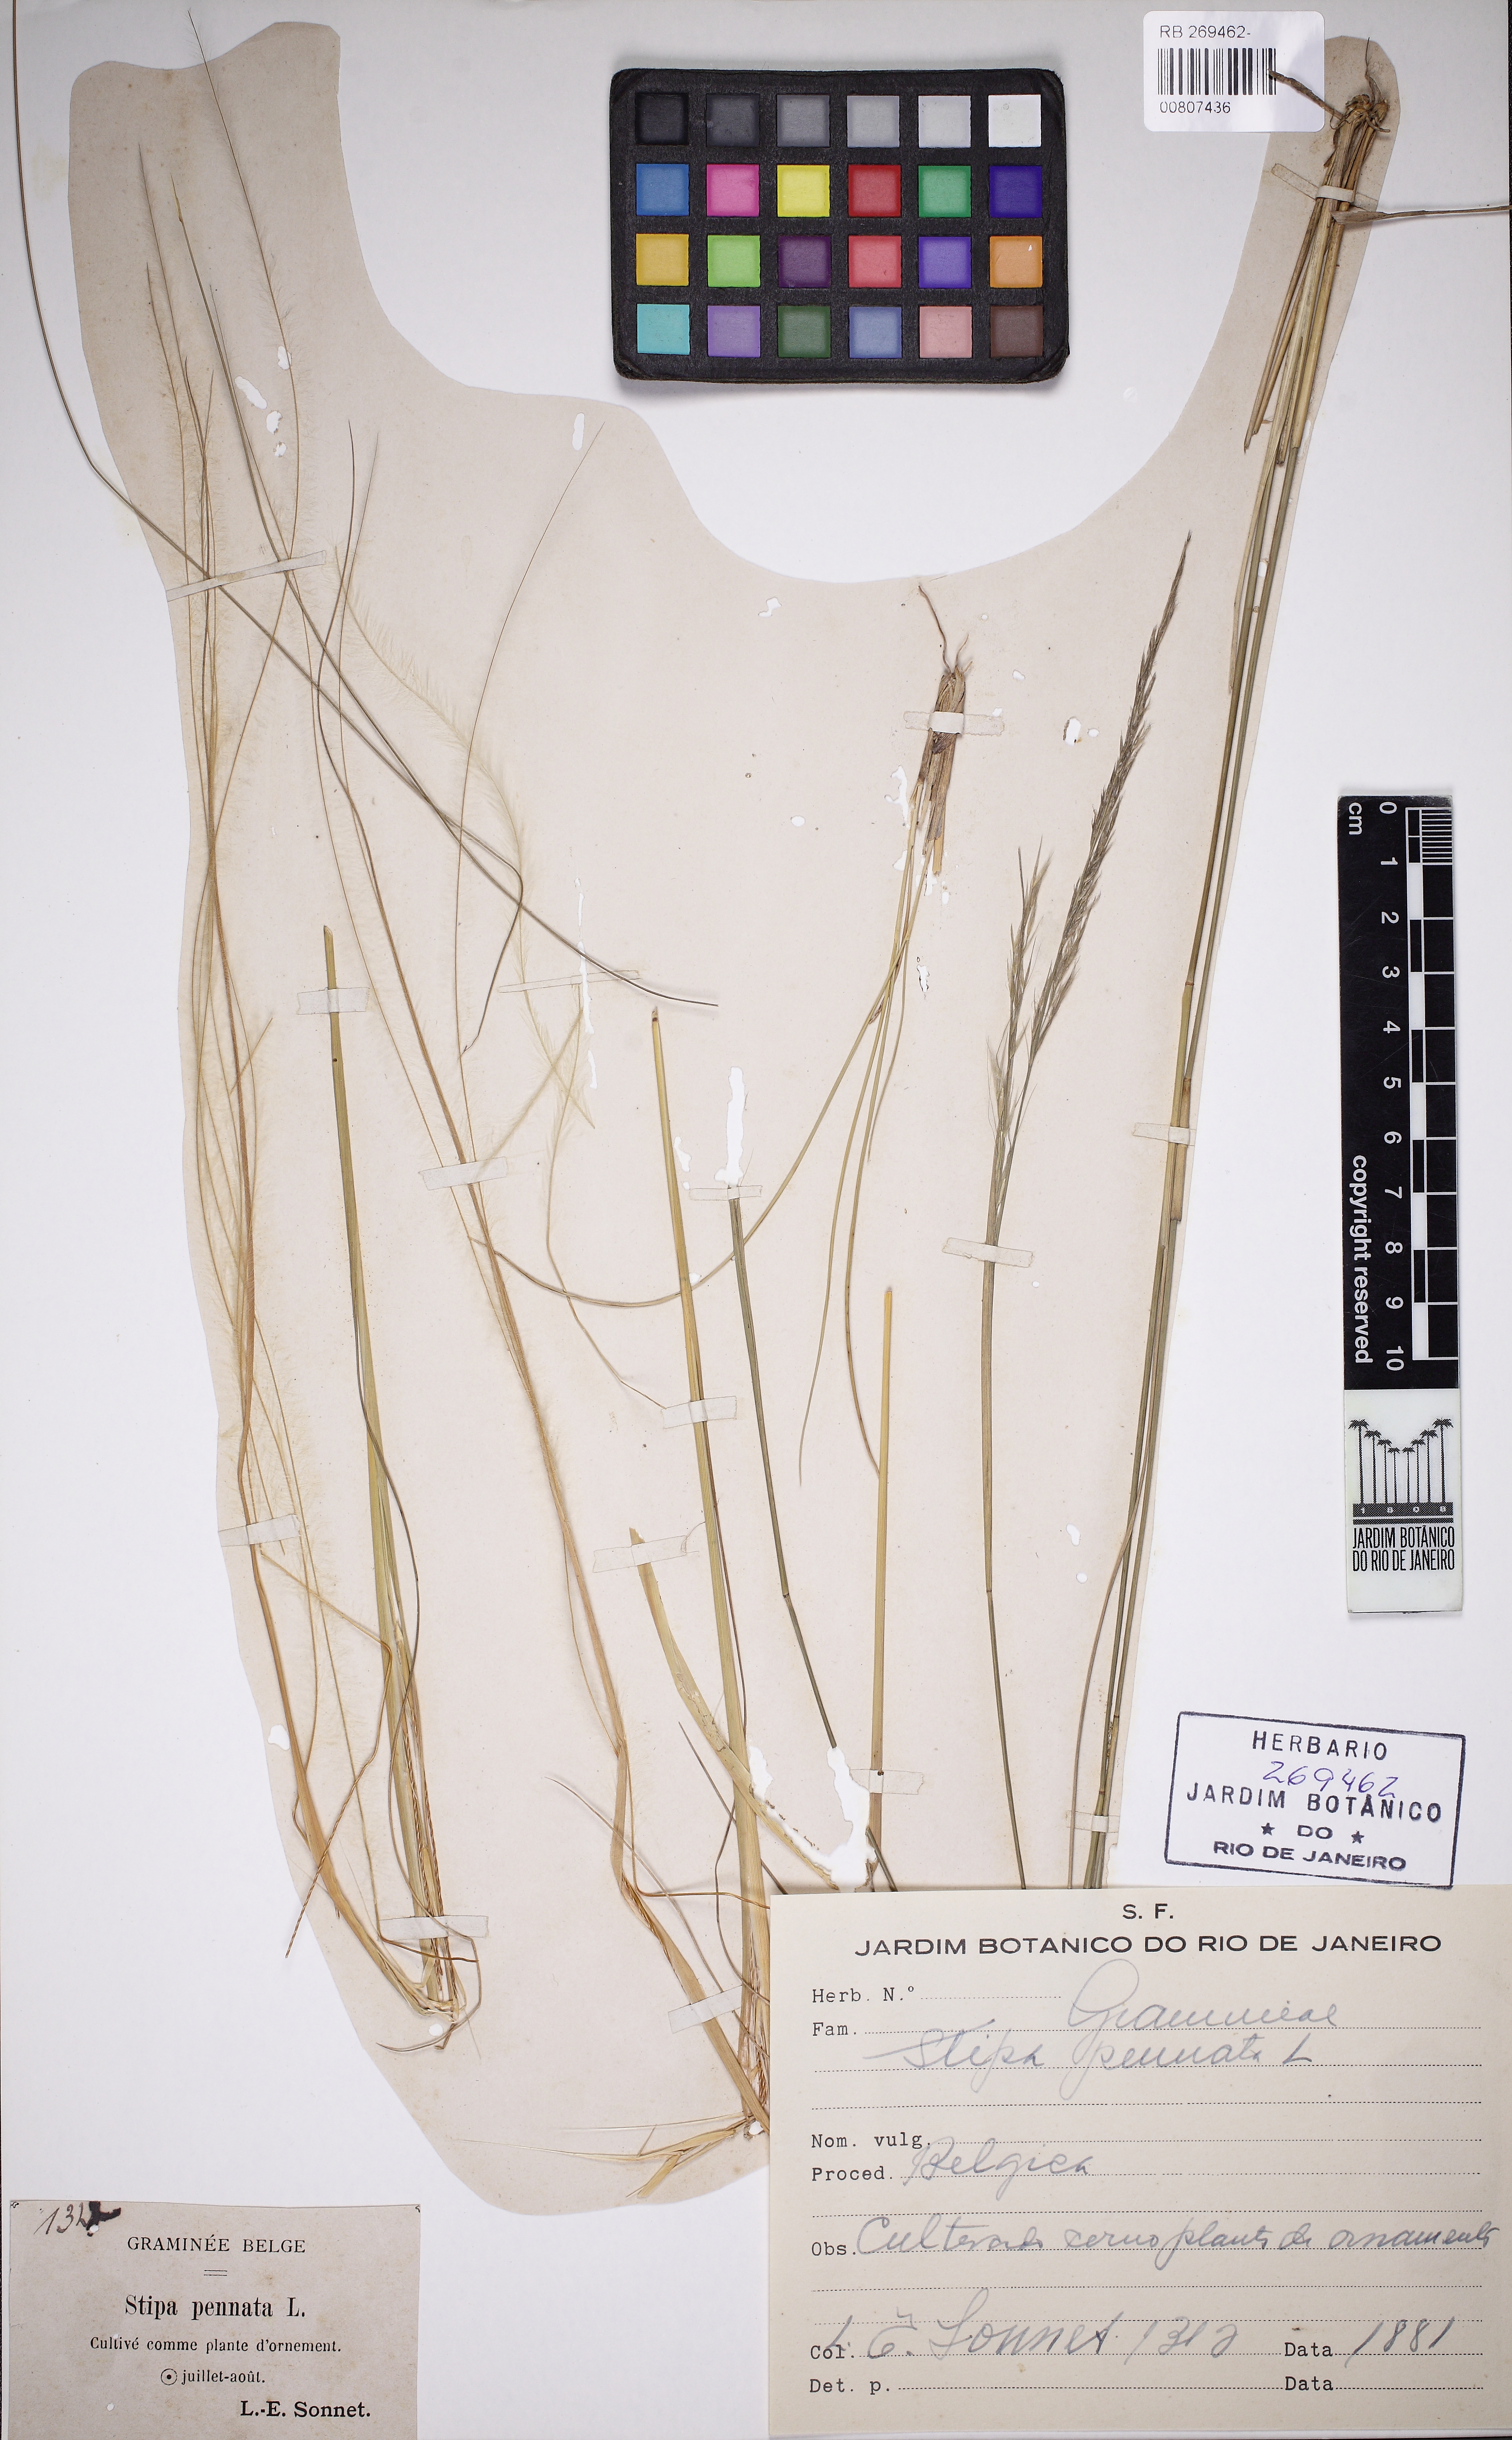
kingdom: Plantae
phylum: Tracheophyta
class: Liliopsida
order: Poales
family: Poaceae
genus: Stipa
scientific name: Stipa pennata
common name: European feather grass
